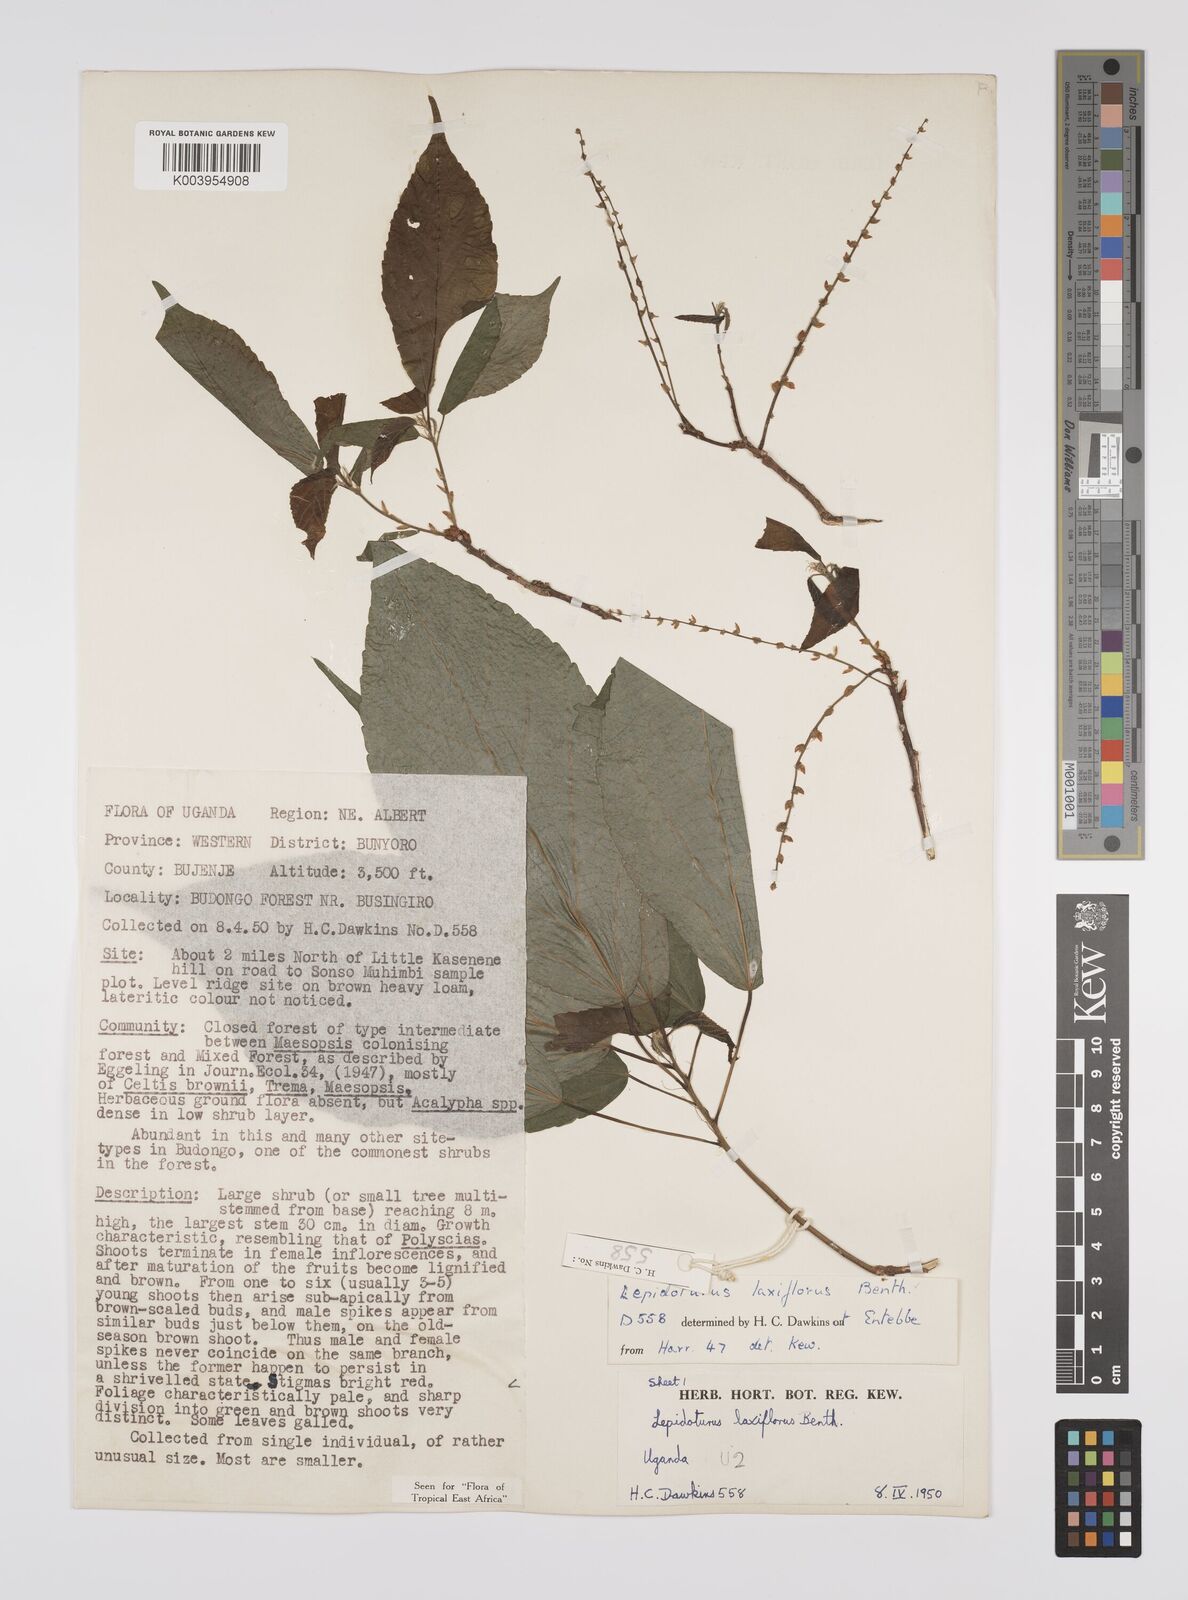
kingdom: Plantae
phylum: Tracheophyta
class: Magnoliopsida
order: Malpighiales
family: Euphorbiaceae
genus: Alchornea
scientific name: Alchornea laxiflora
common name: Lowveld bead-string
